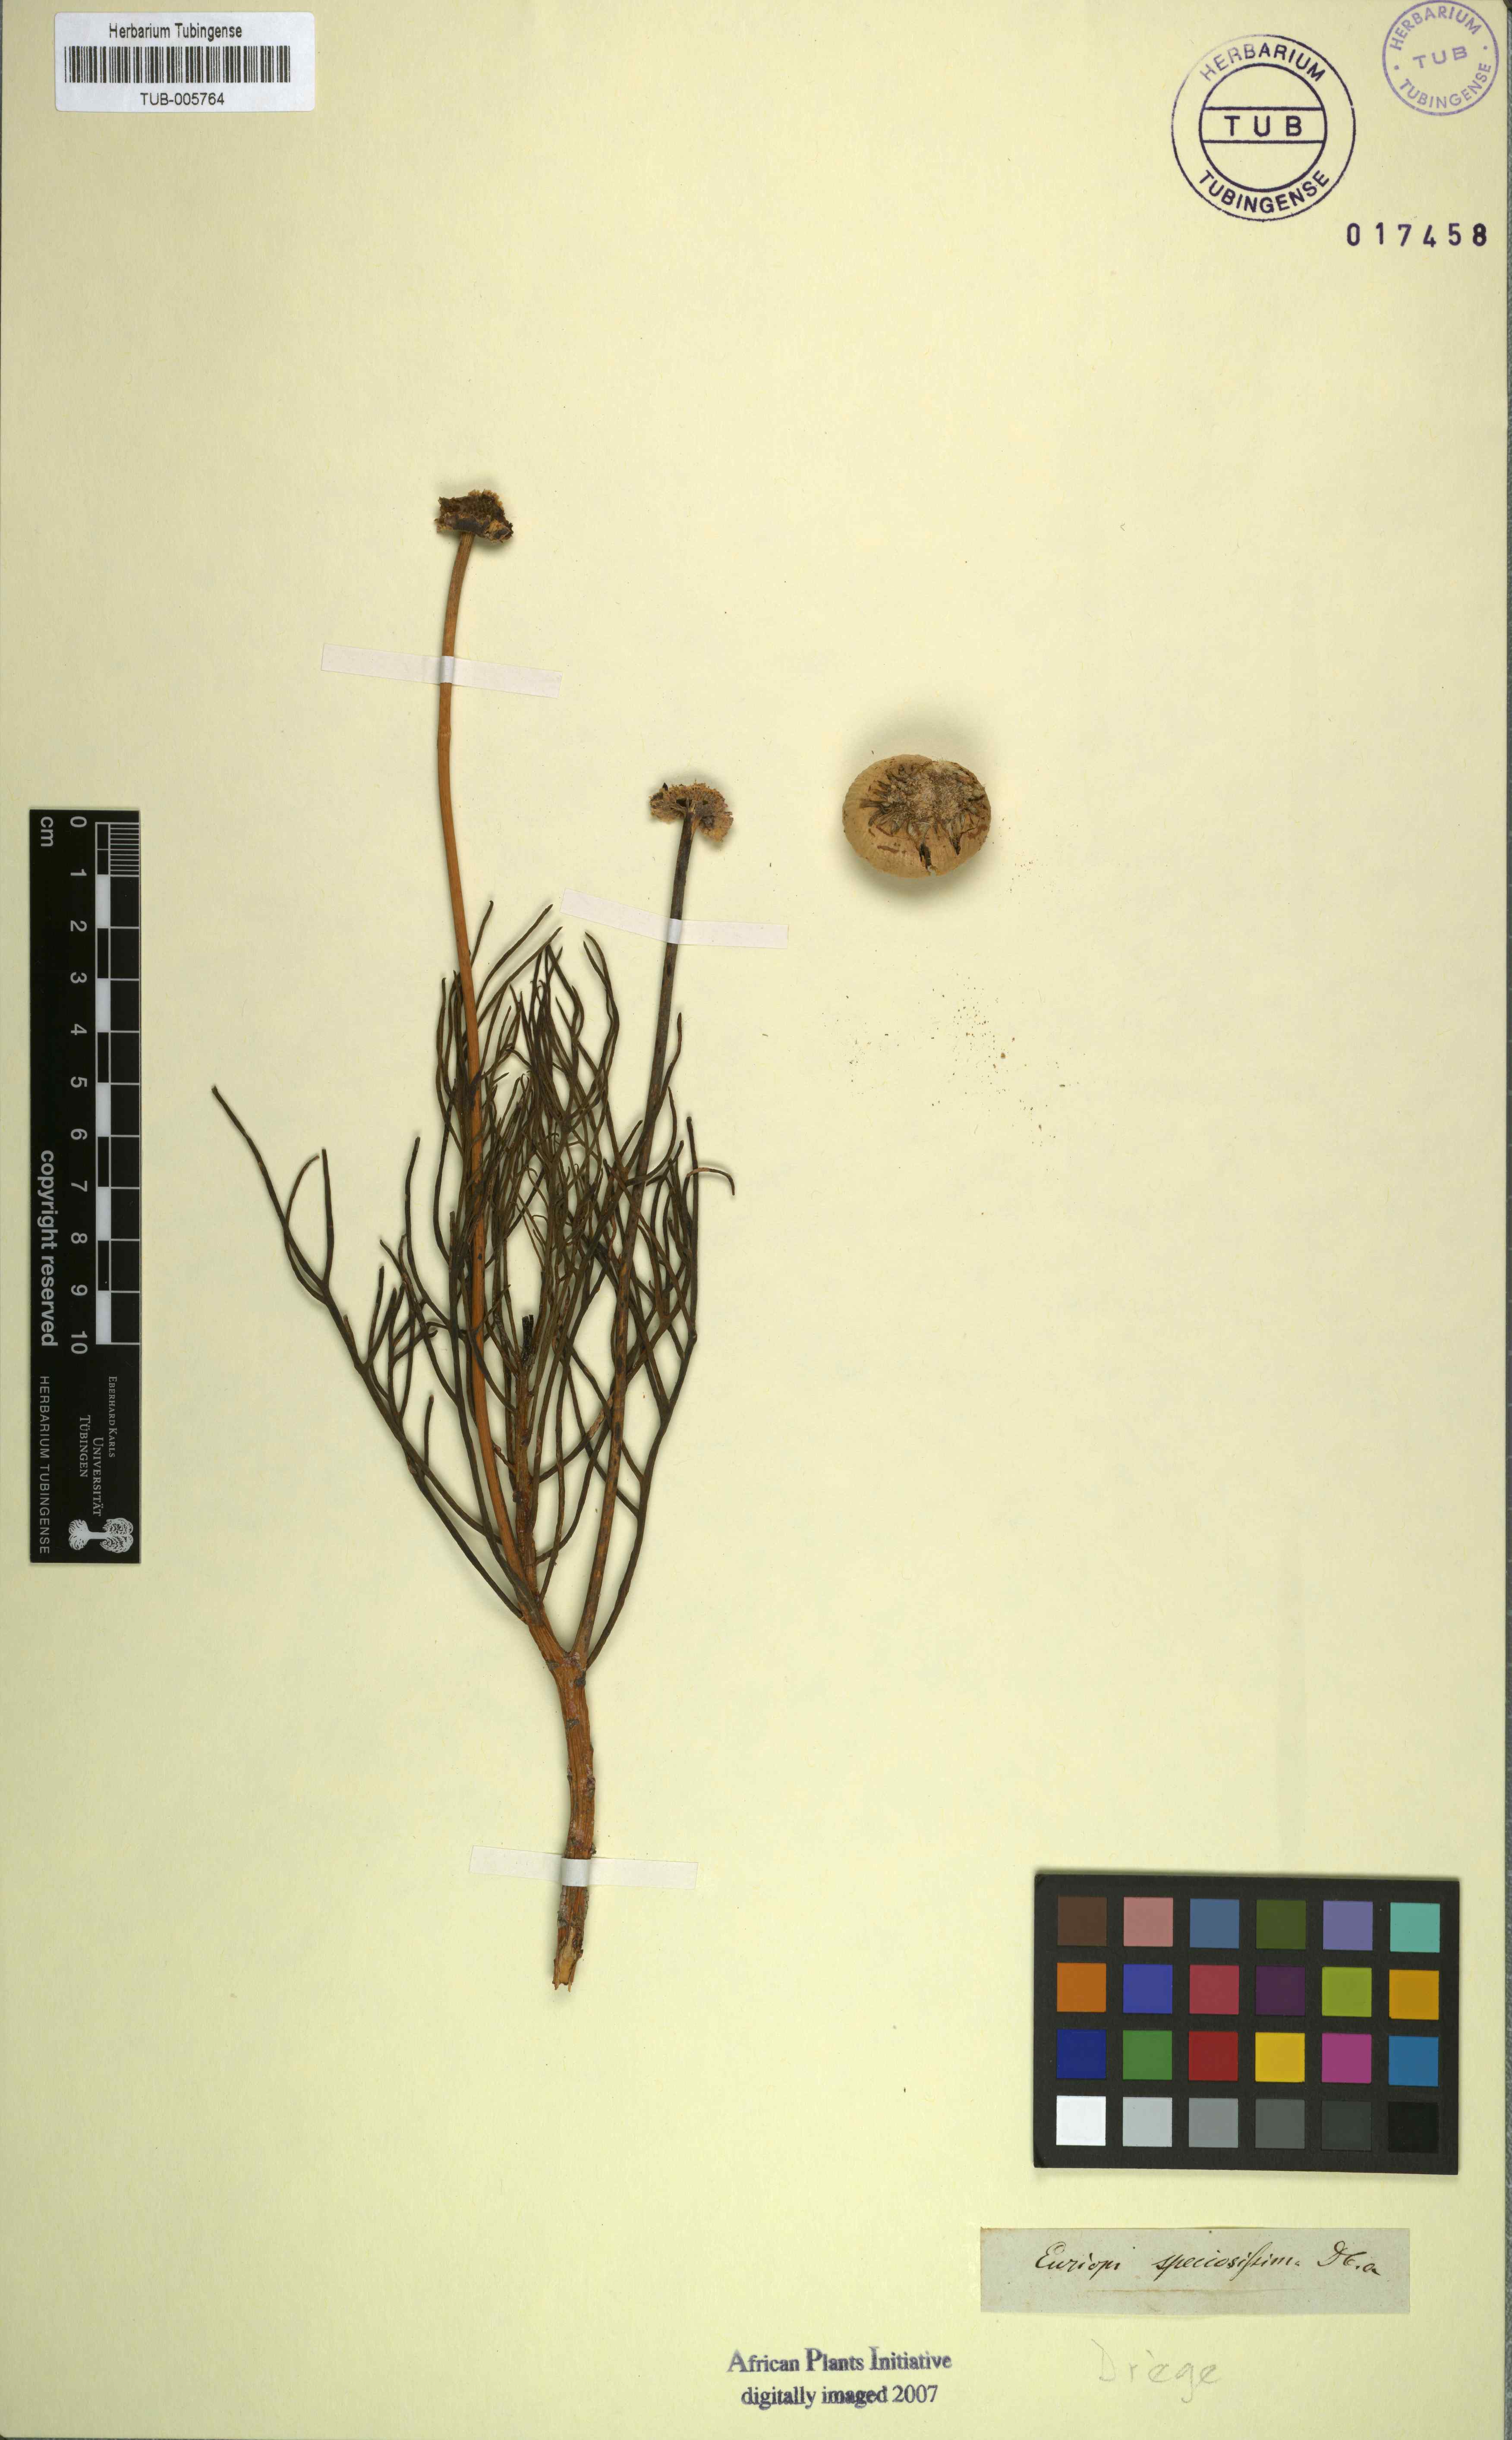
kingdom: Plantae
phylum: Tracheophyta
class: Magnoliopsida
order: Asterales
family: Asteraceae
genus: Euryops
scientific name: Euryops abrotanifolius
